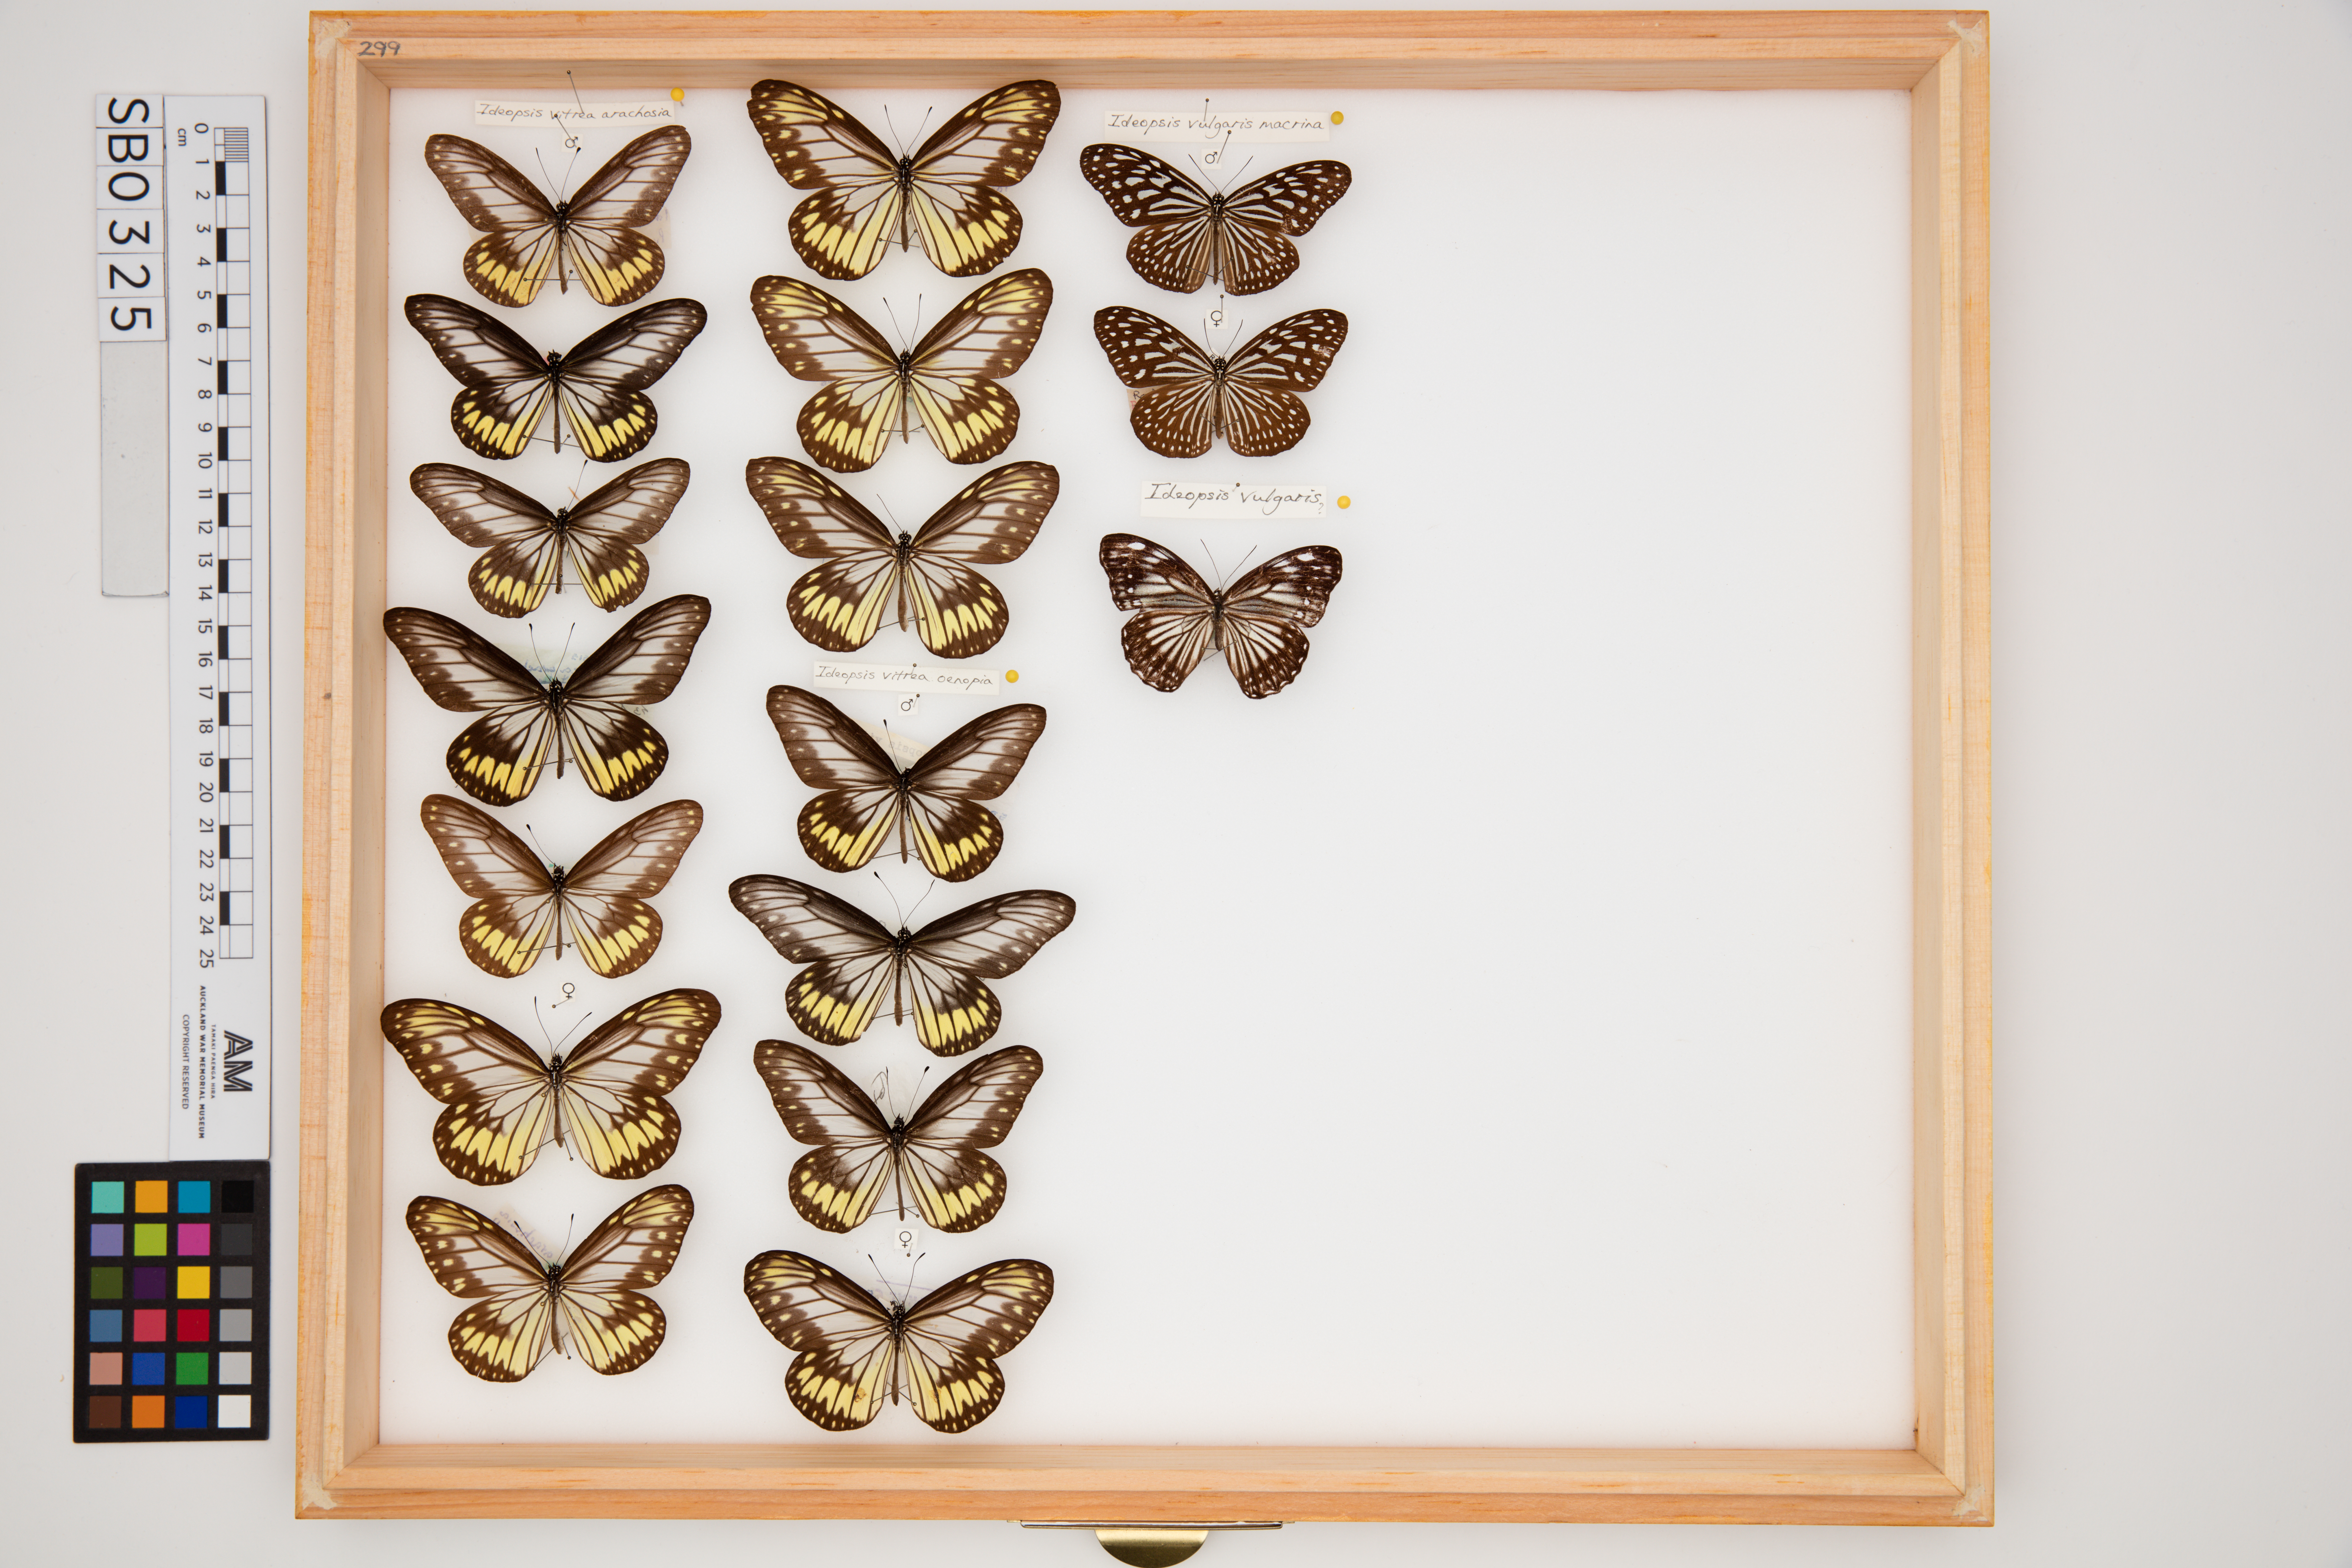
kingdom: Animalia
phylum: Arthropoda
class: Insecta
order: Lepidoptera
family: Nymphalidae
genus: Ideopsis
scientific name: Ideopsis vitrea
